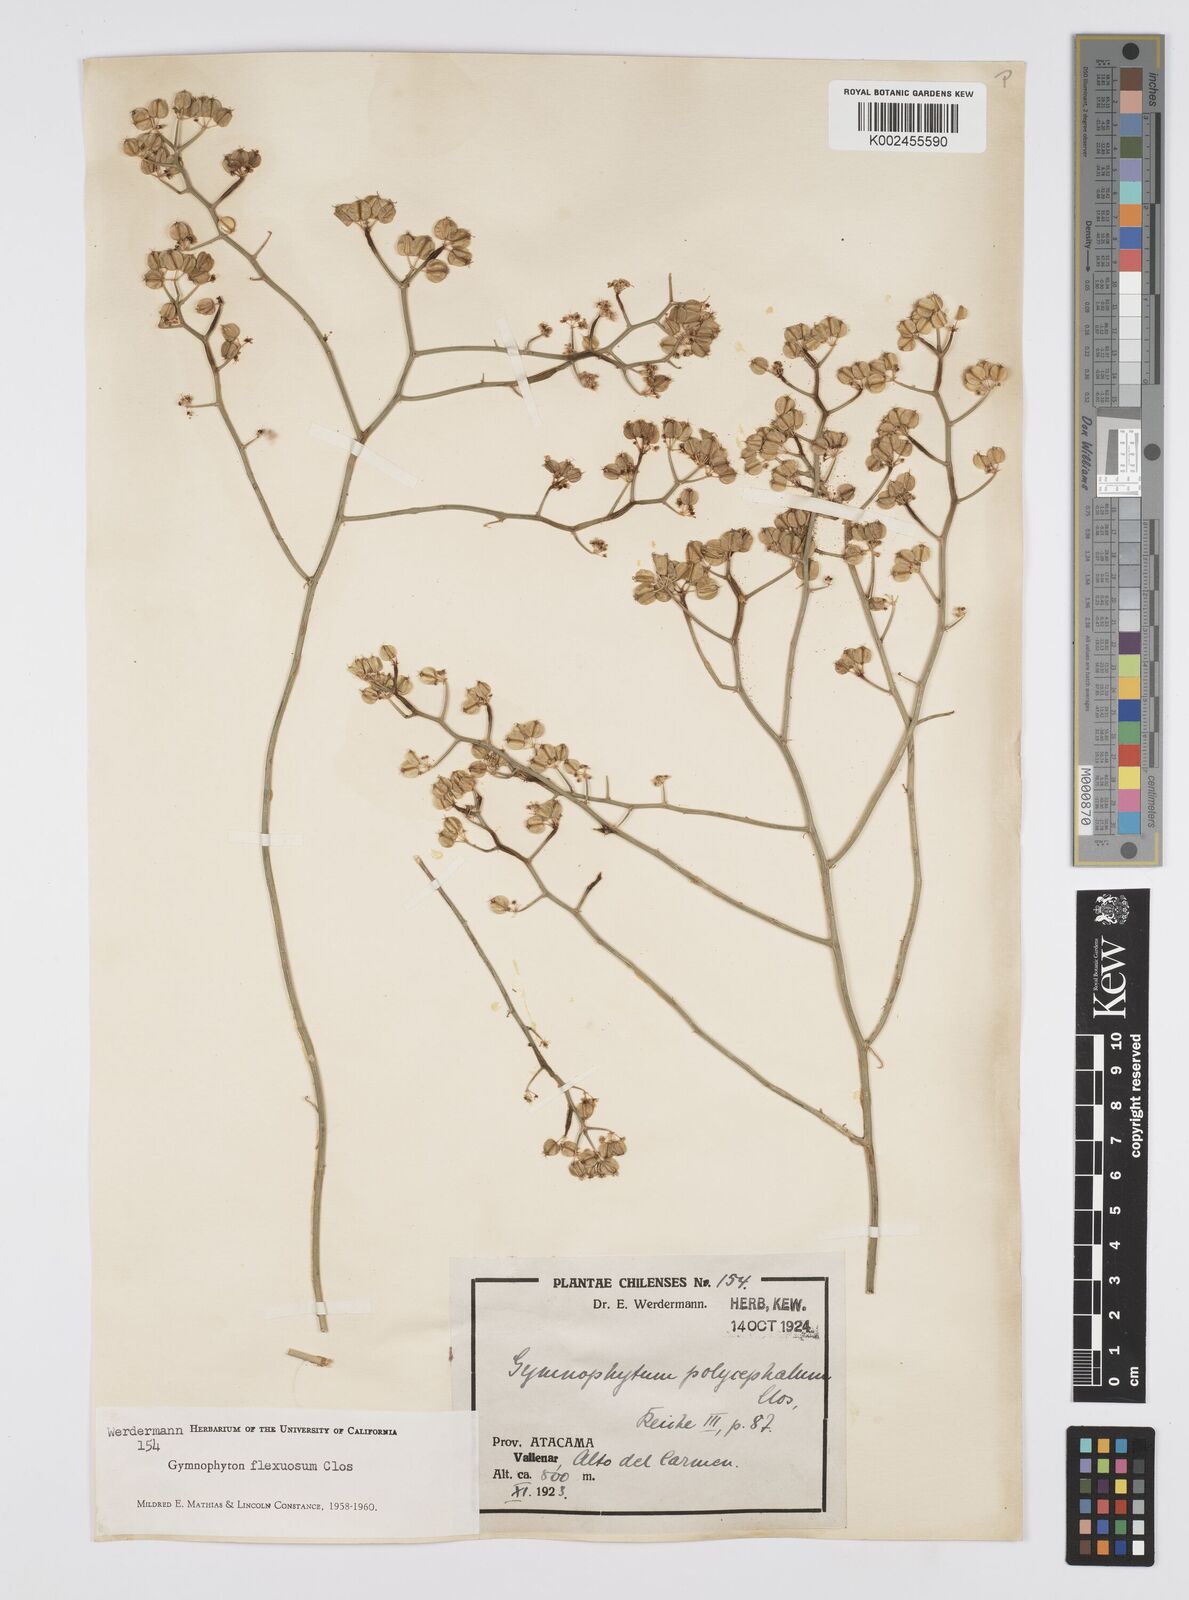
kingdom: Plantae
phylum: Tracheophyta
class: Magnoliopsida
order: Apiales
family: Apiaceae
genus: Gymnophyton
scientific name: Gymnophyton flexuosum
